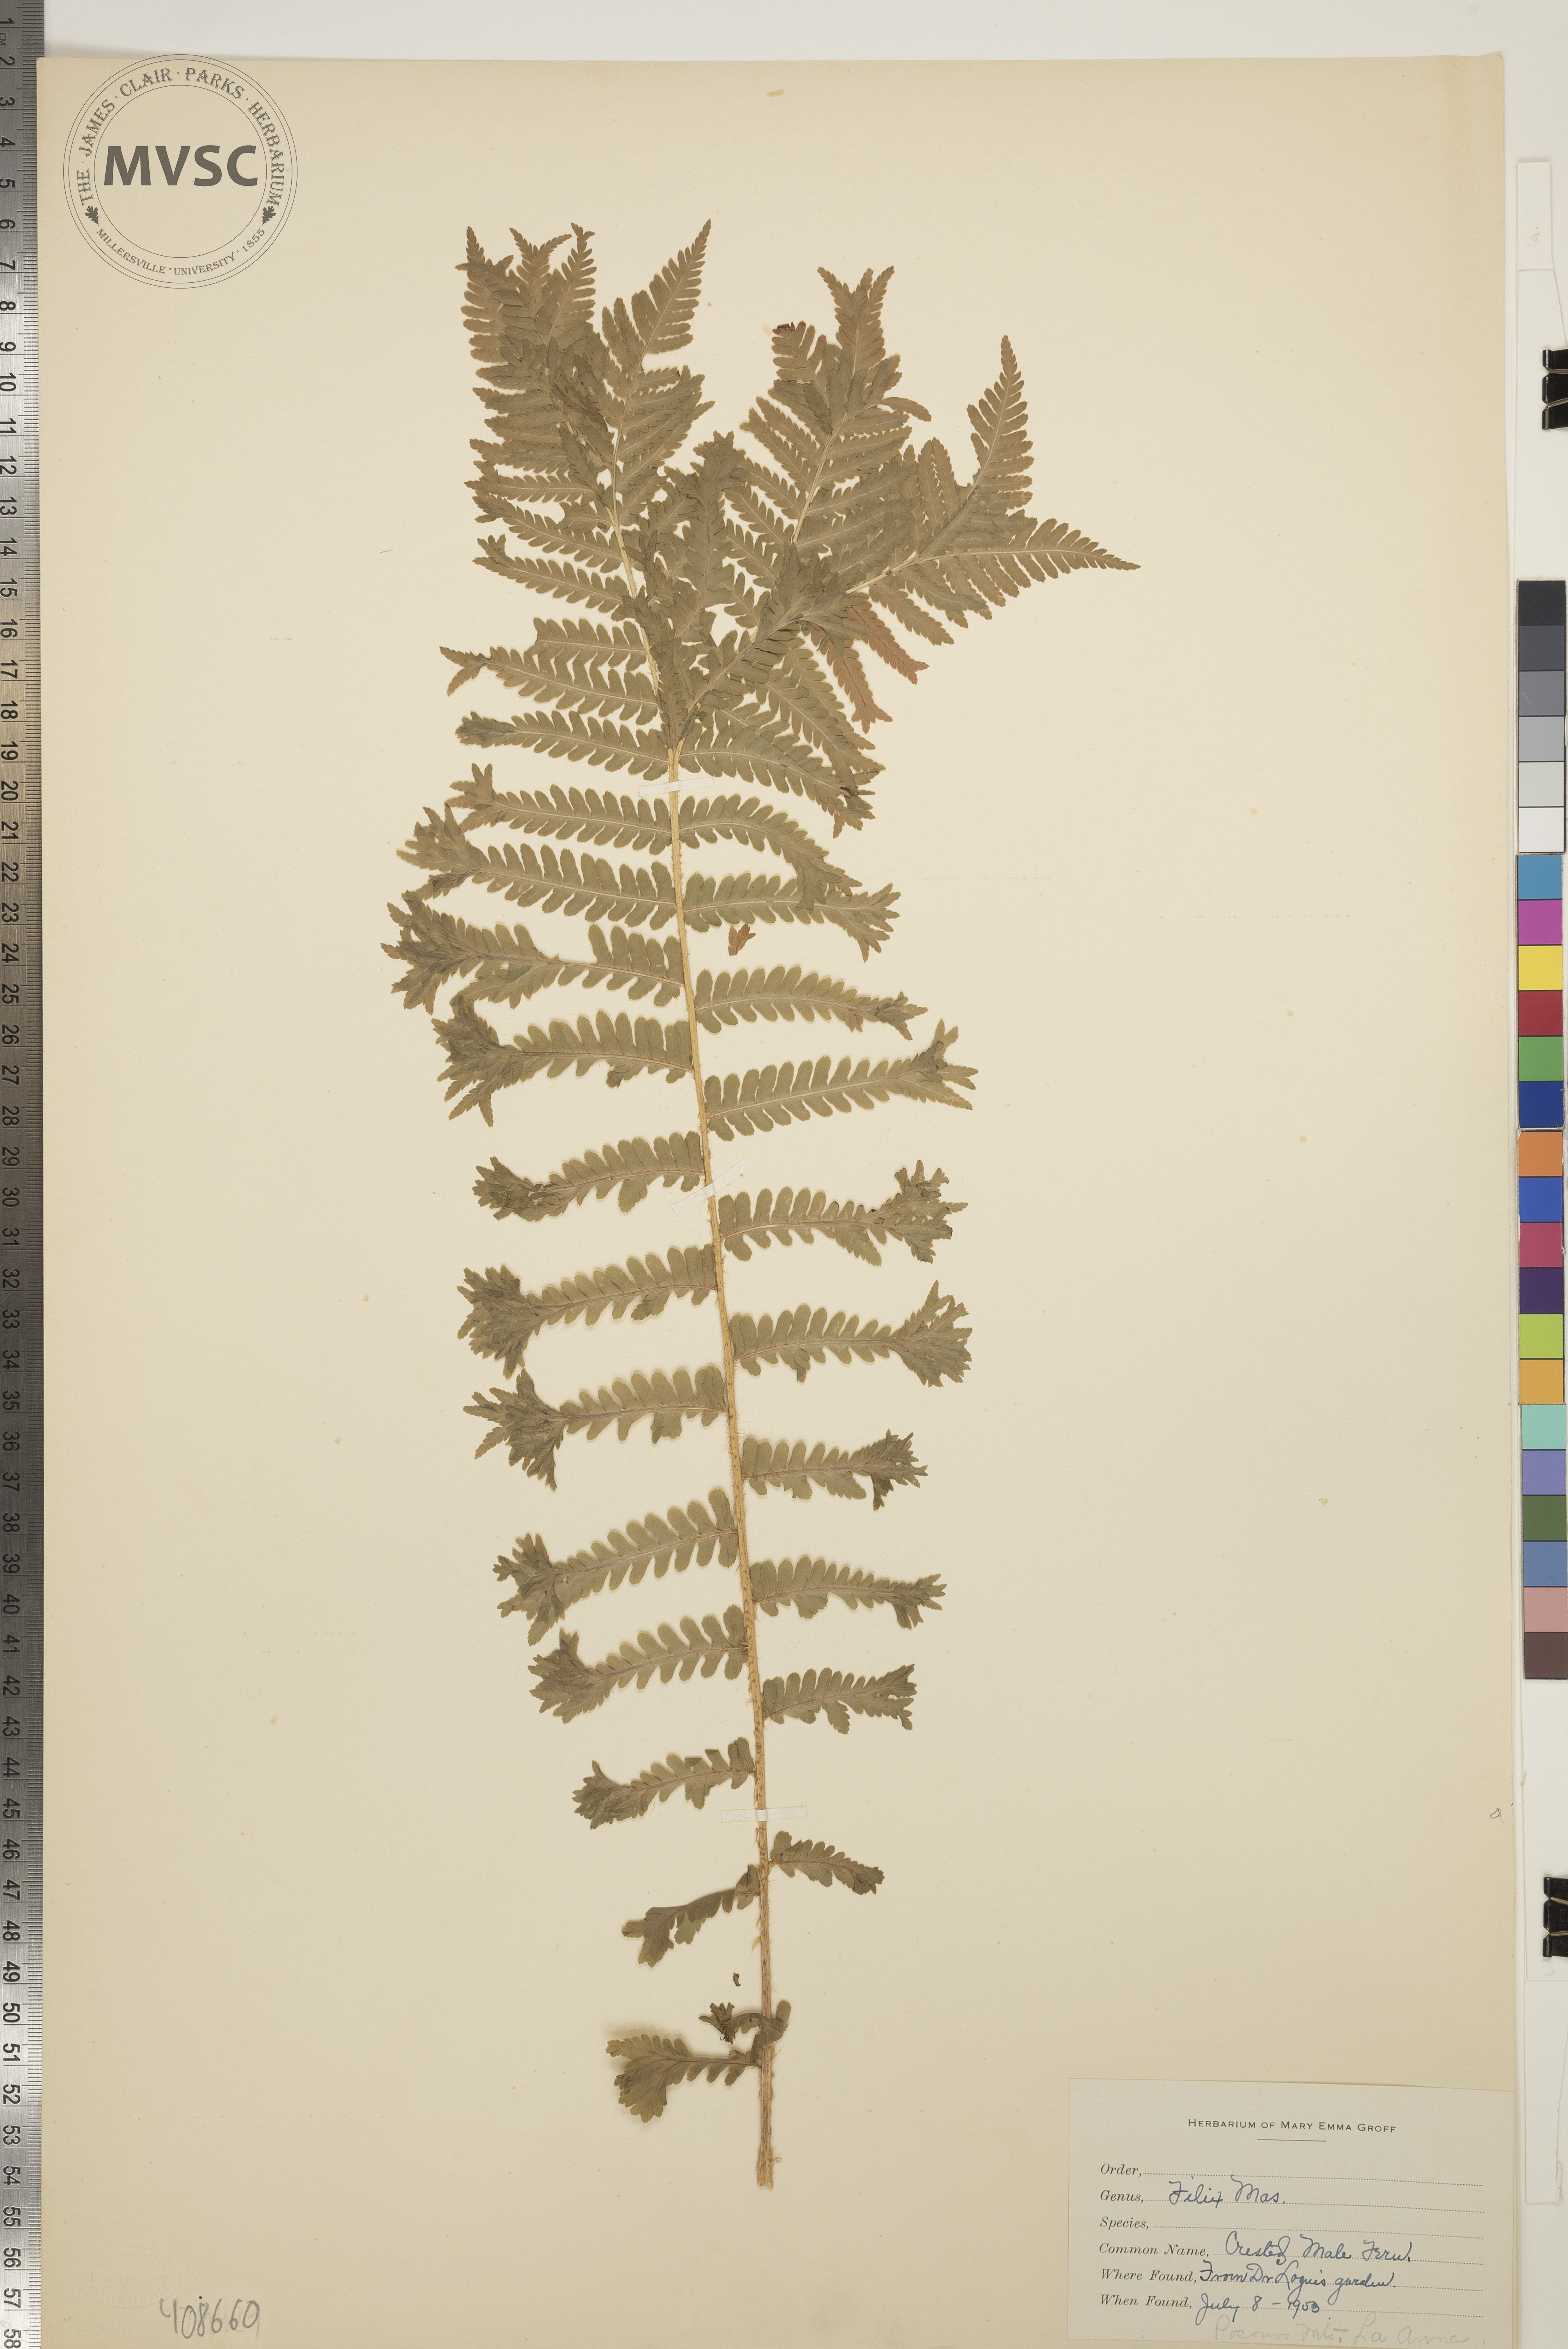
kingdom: Plantae
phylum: Tracheophyta
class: Polypodiopsida
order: Polypodiales
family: Dryopteridaceae
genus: Dryopteris
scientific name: Dryopteris filix-mas
